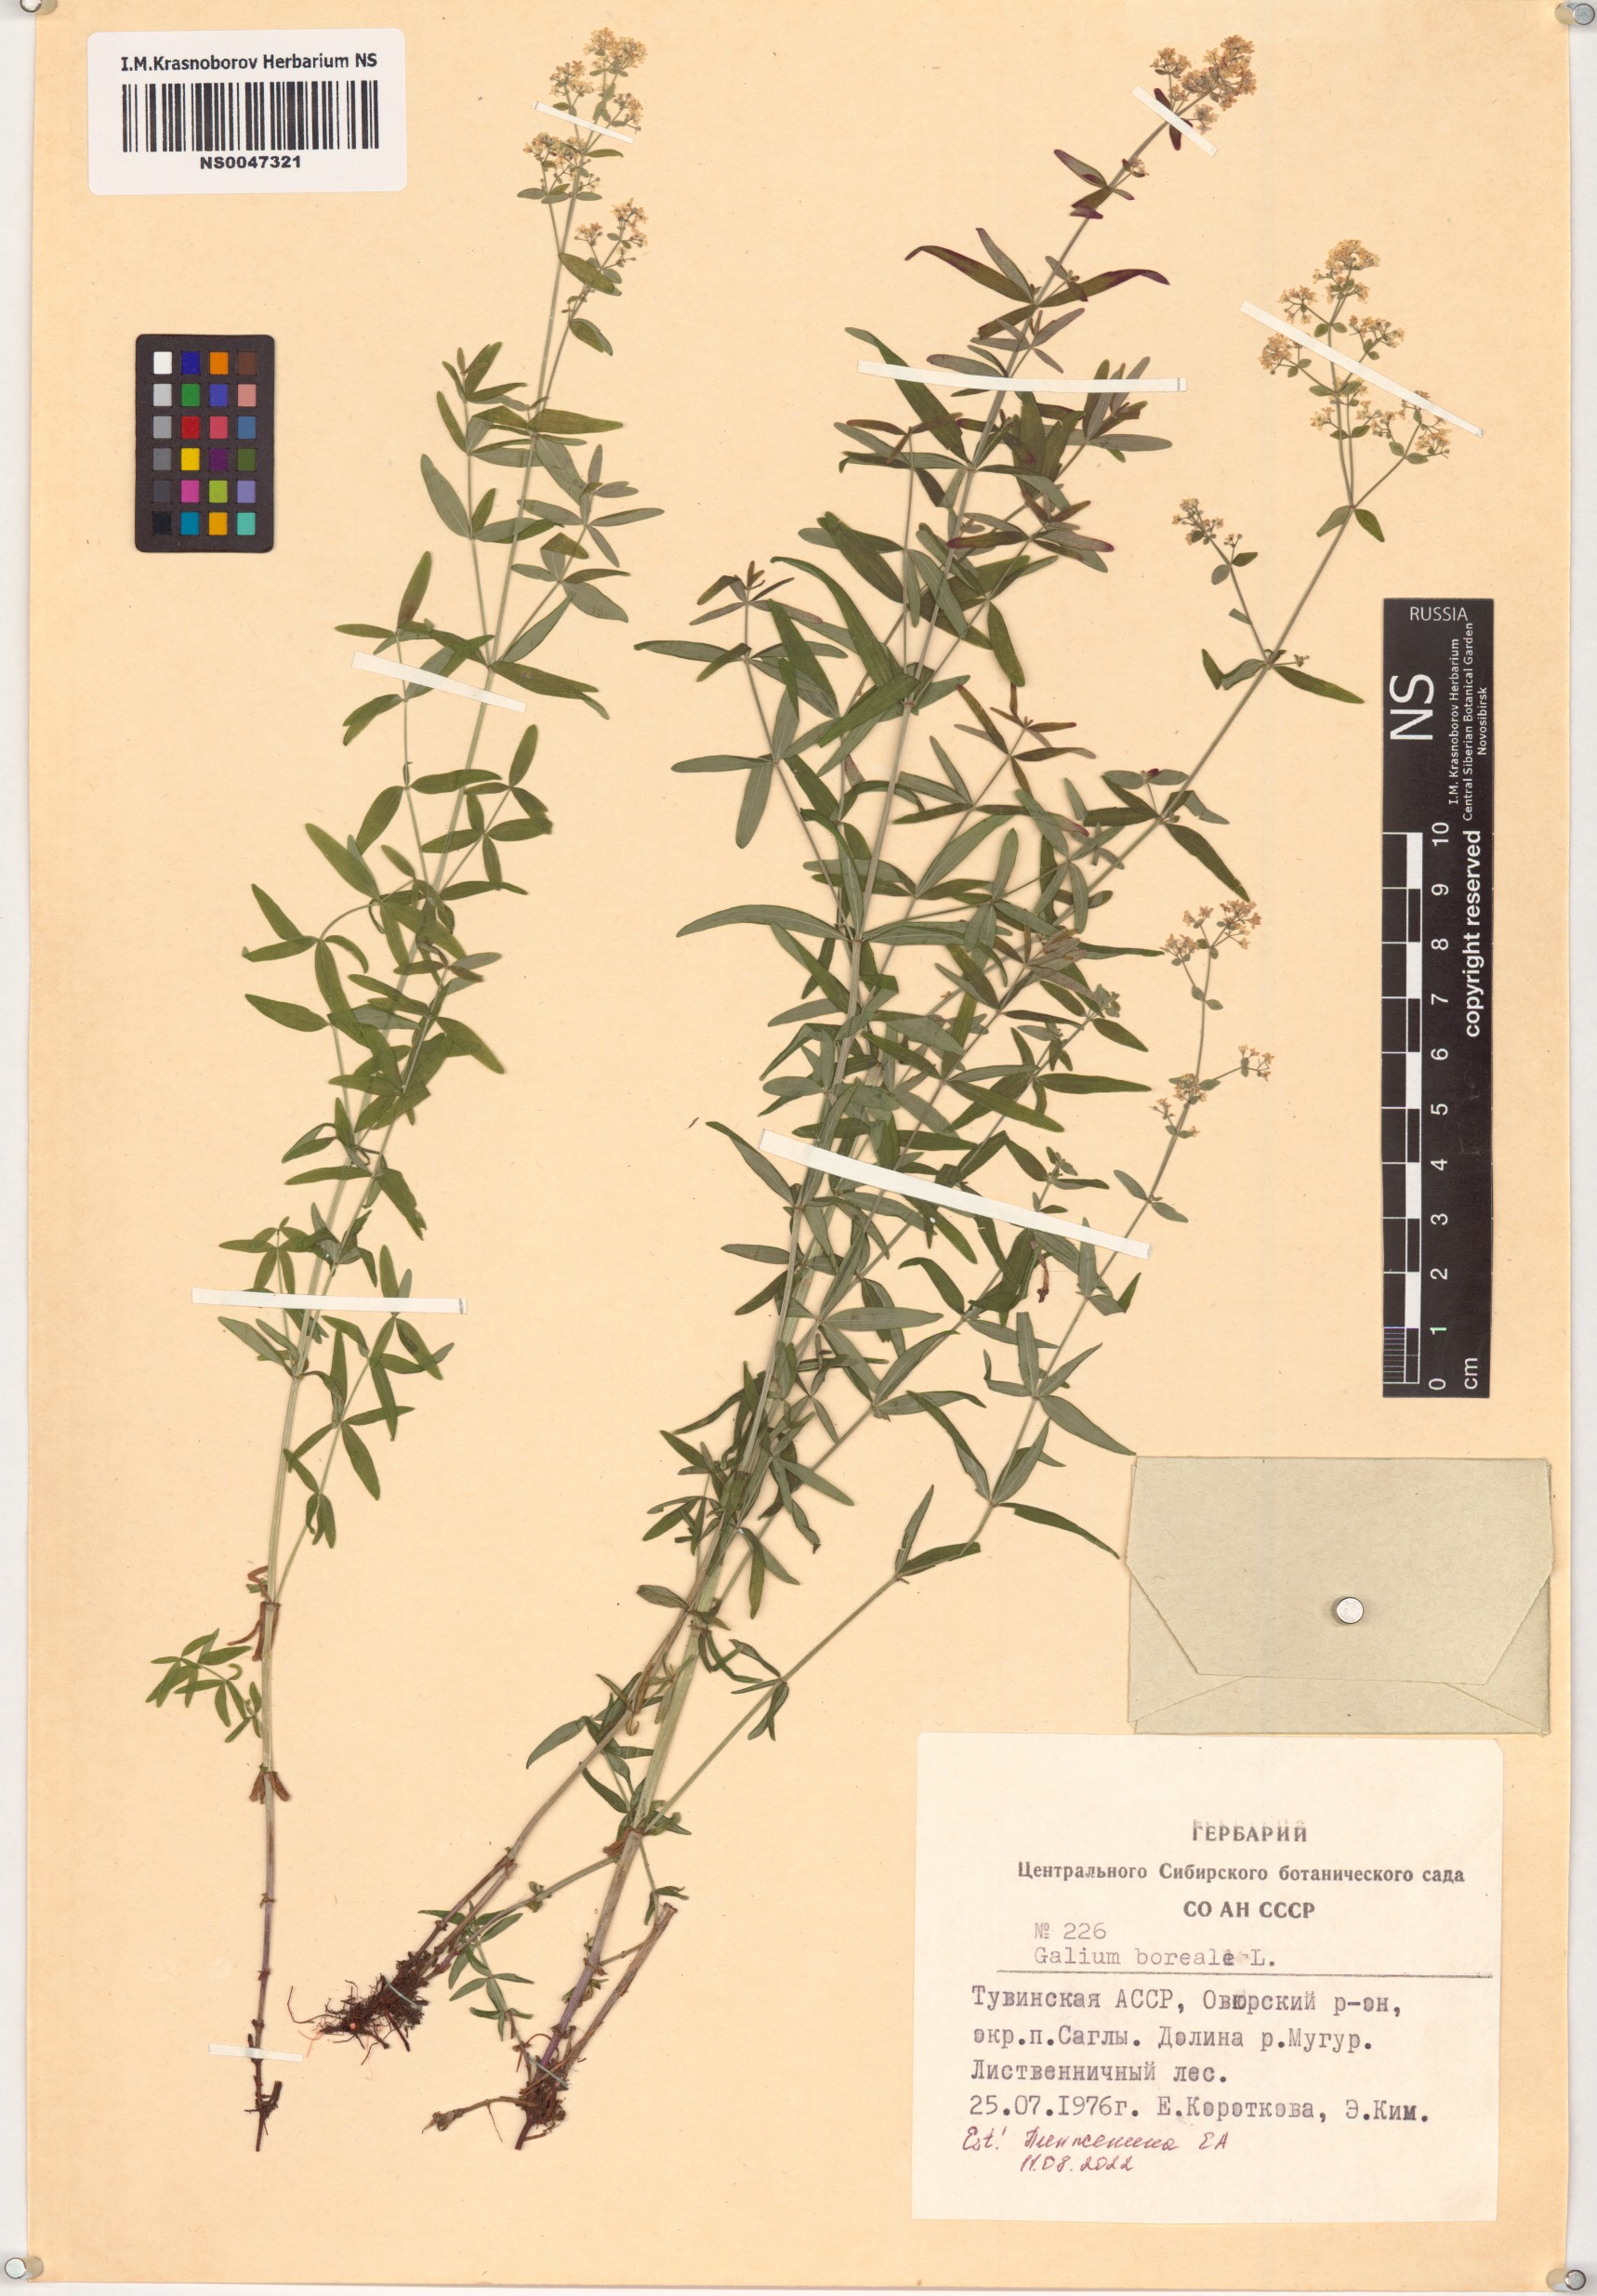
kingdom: Plantae
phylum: Tracheophyta
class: Magnoliopsida
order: Gentianales
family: Rubiaceae
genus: Galium
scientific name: Galium boreale
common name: Northern bedstraw
